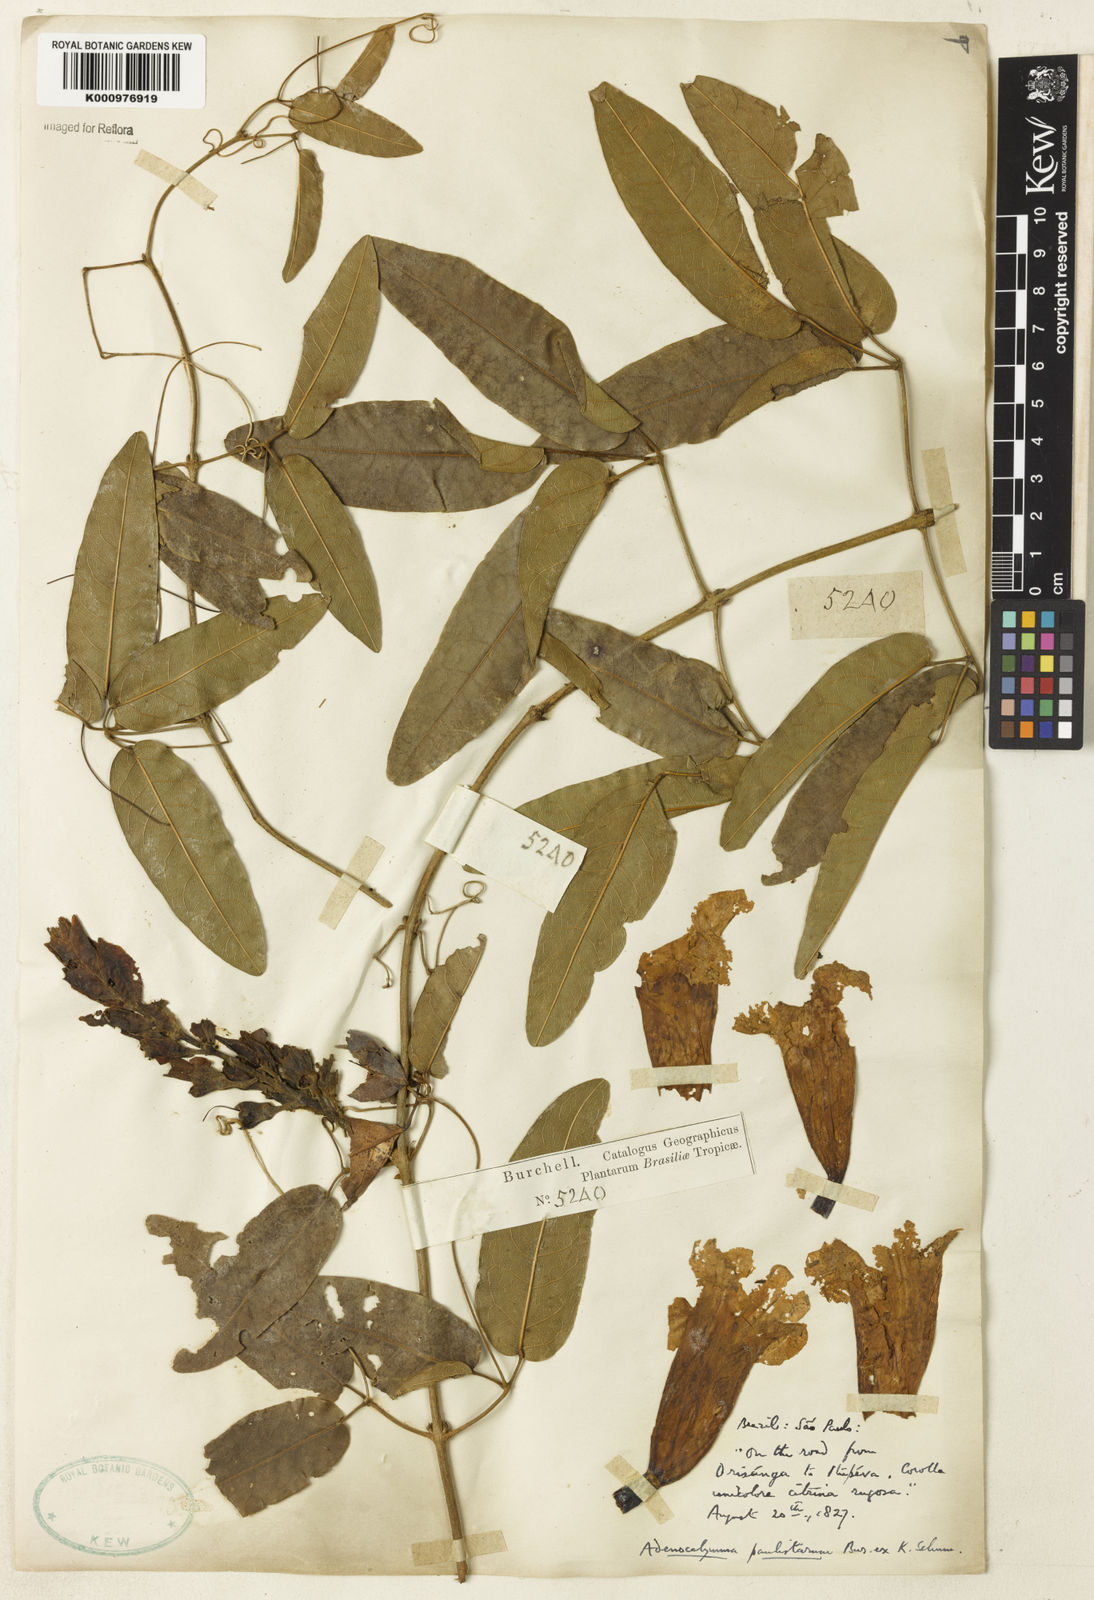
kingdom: Plantae
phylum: Tracheophyta
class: Magnoliopsida
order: Lamiales
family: Bignoniaceae
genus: Adenocalymma
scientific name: Adenocalymma paulistarum
